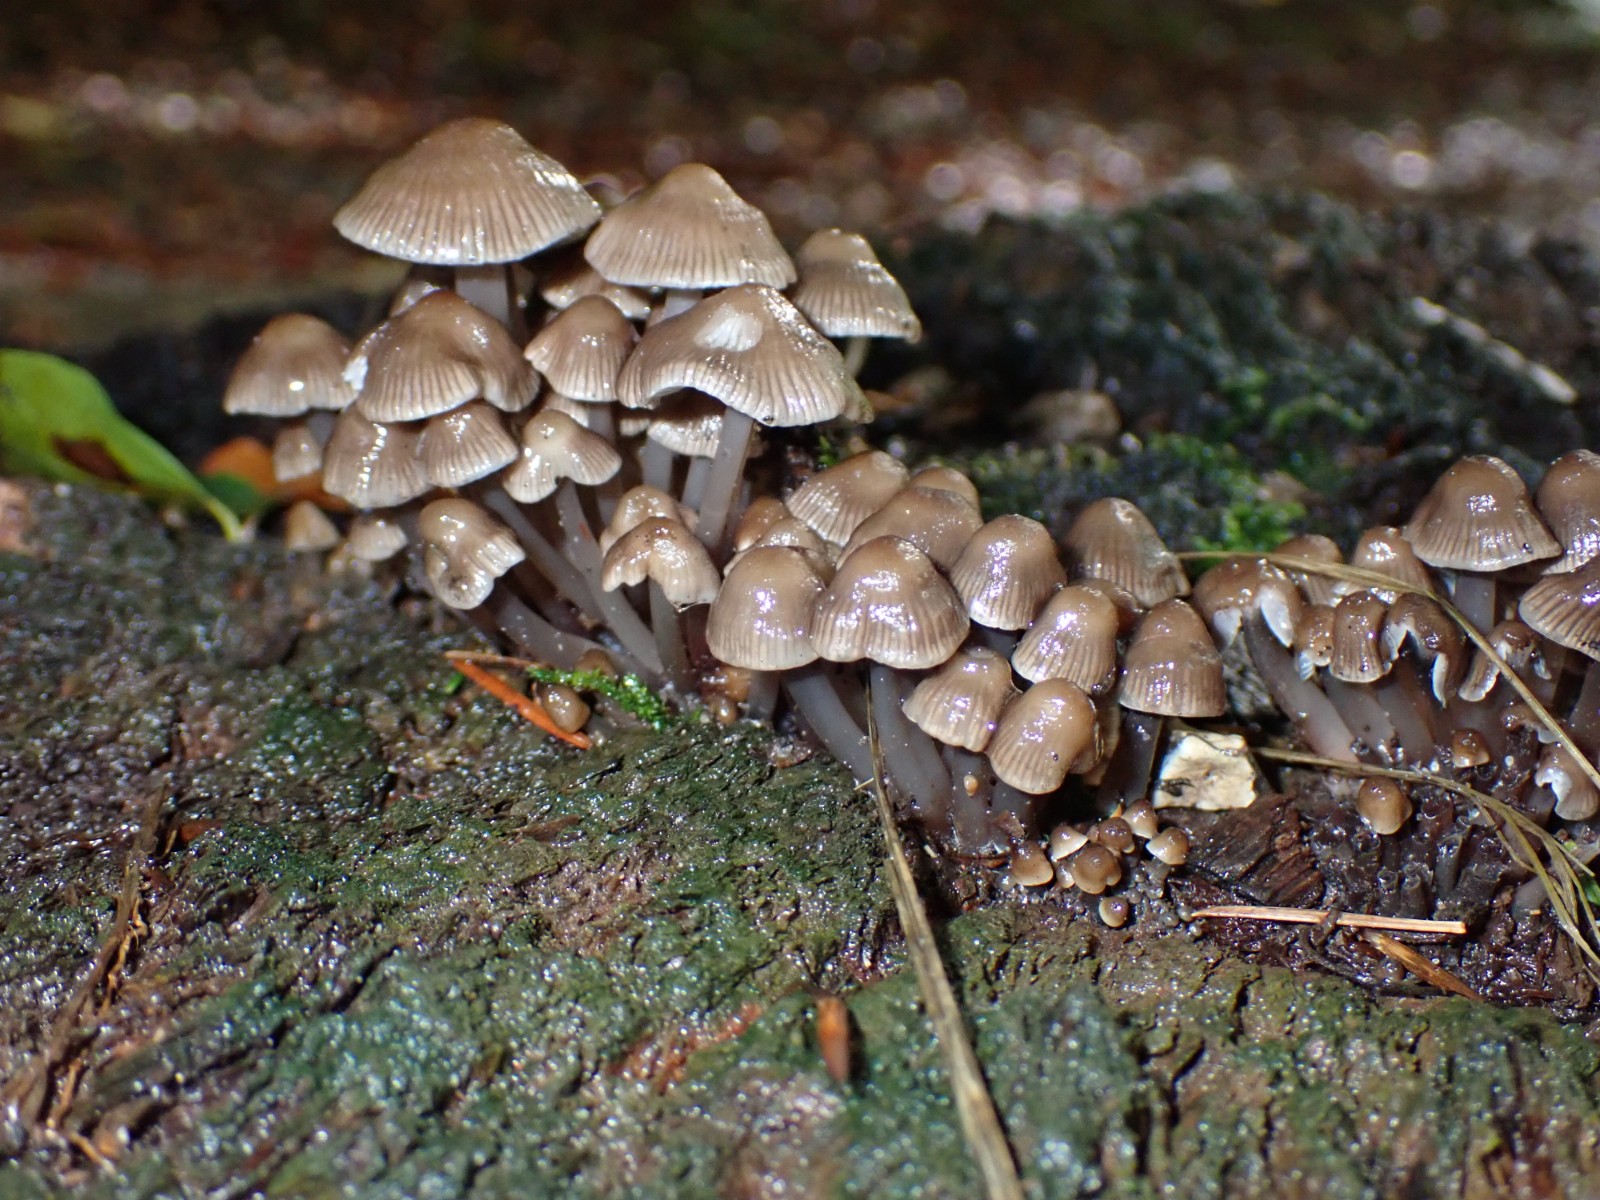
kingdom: Fungi
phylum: Basidiomycota
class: Agaricomycetes
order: Agaricales
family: Mycenaceae
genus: Mycena
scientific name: Mycena
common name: huesvamp
